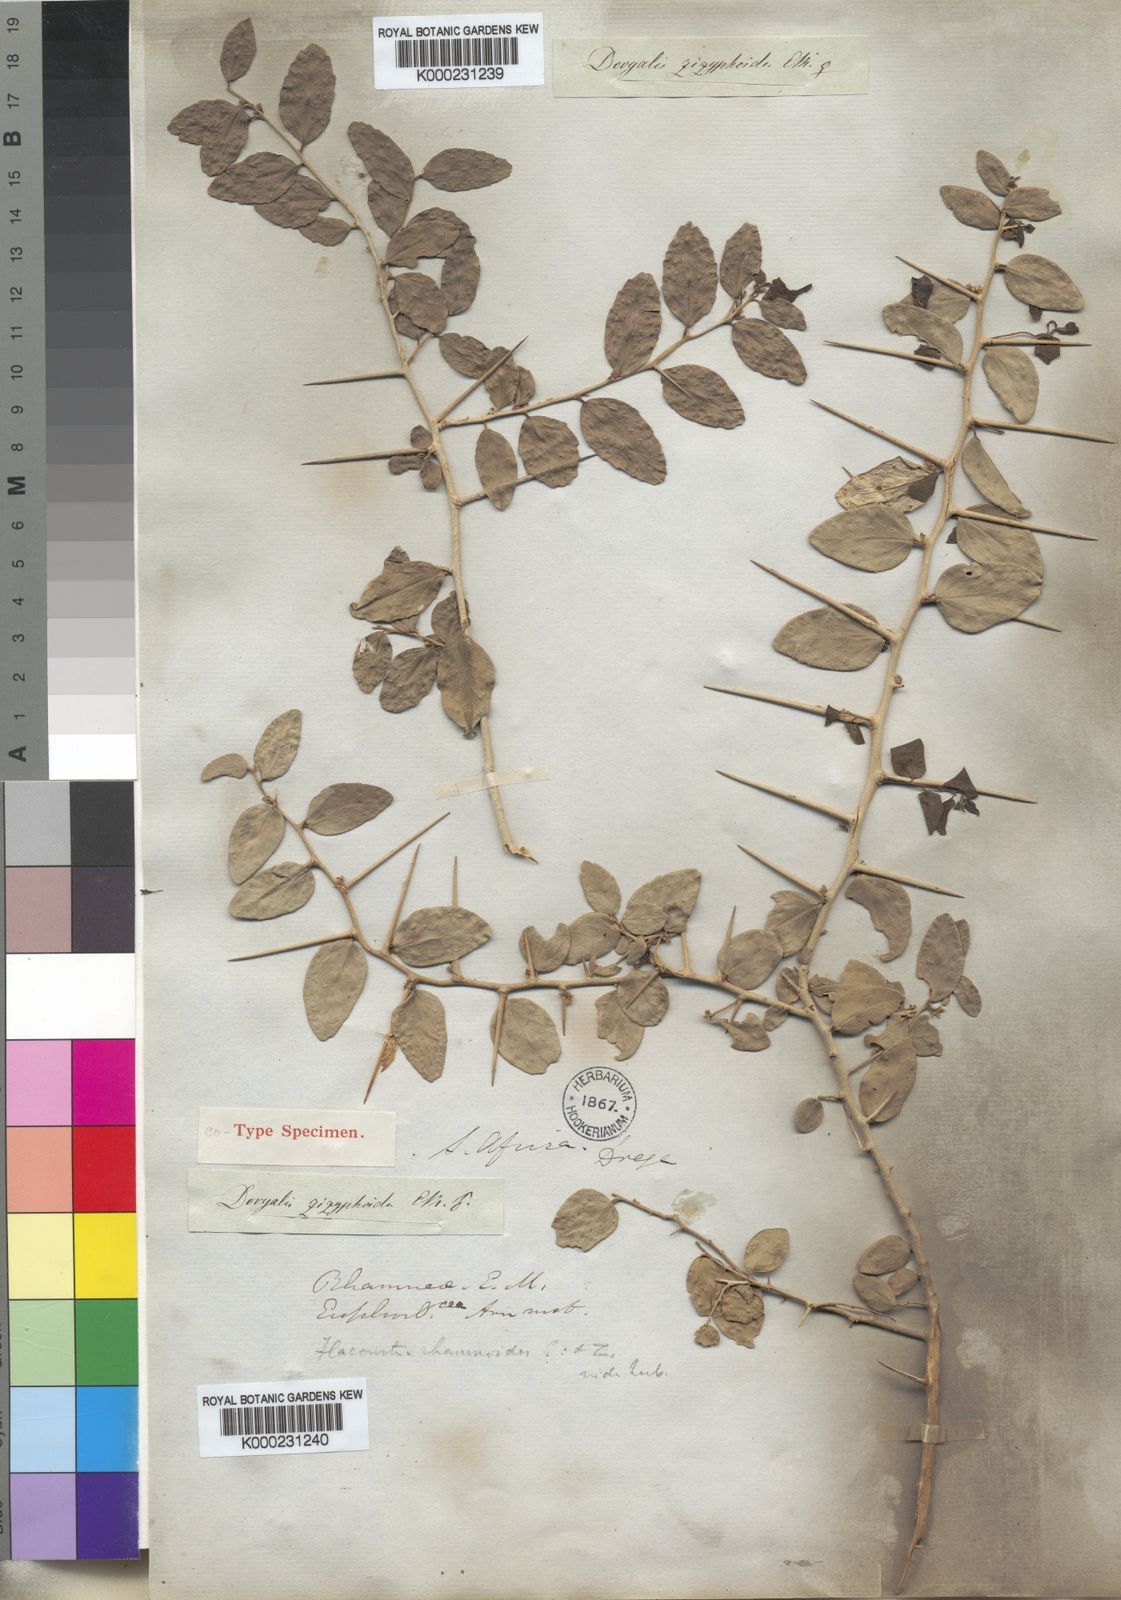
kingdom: Plantae
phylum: Tracheophyta
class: Magnoliopsida
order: Malpighiales
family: Salicaceae
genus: Dovyalis
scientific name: Dovyalis
